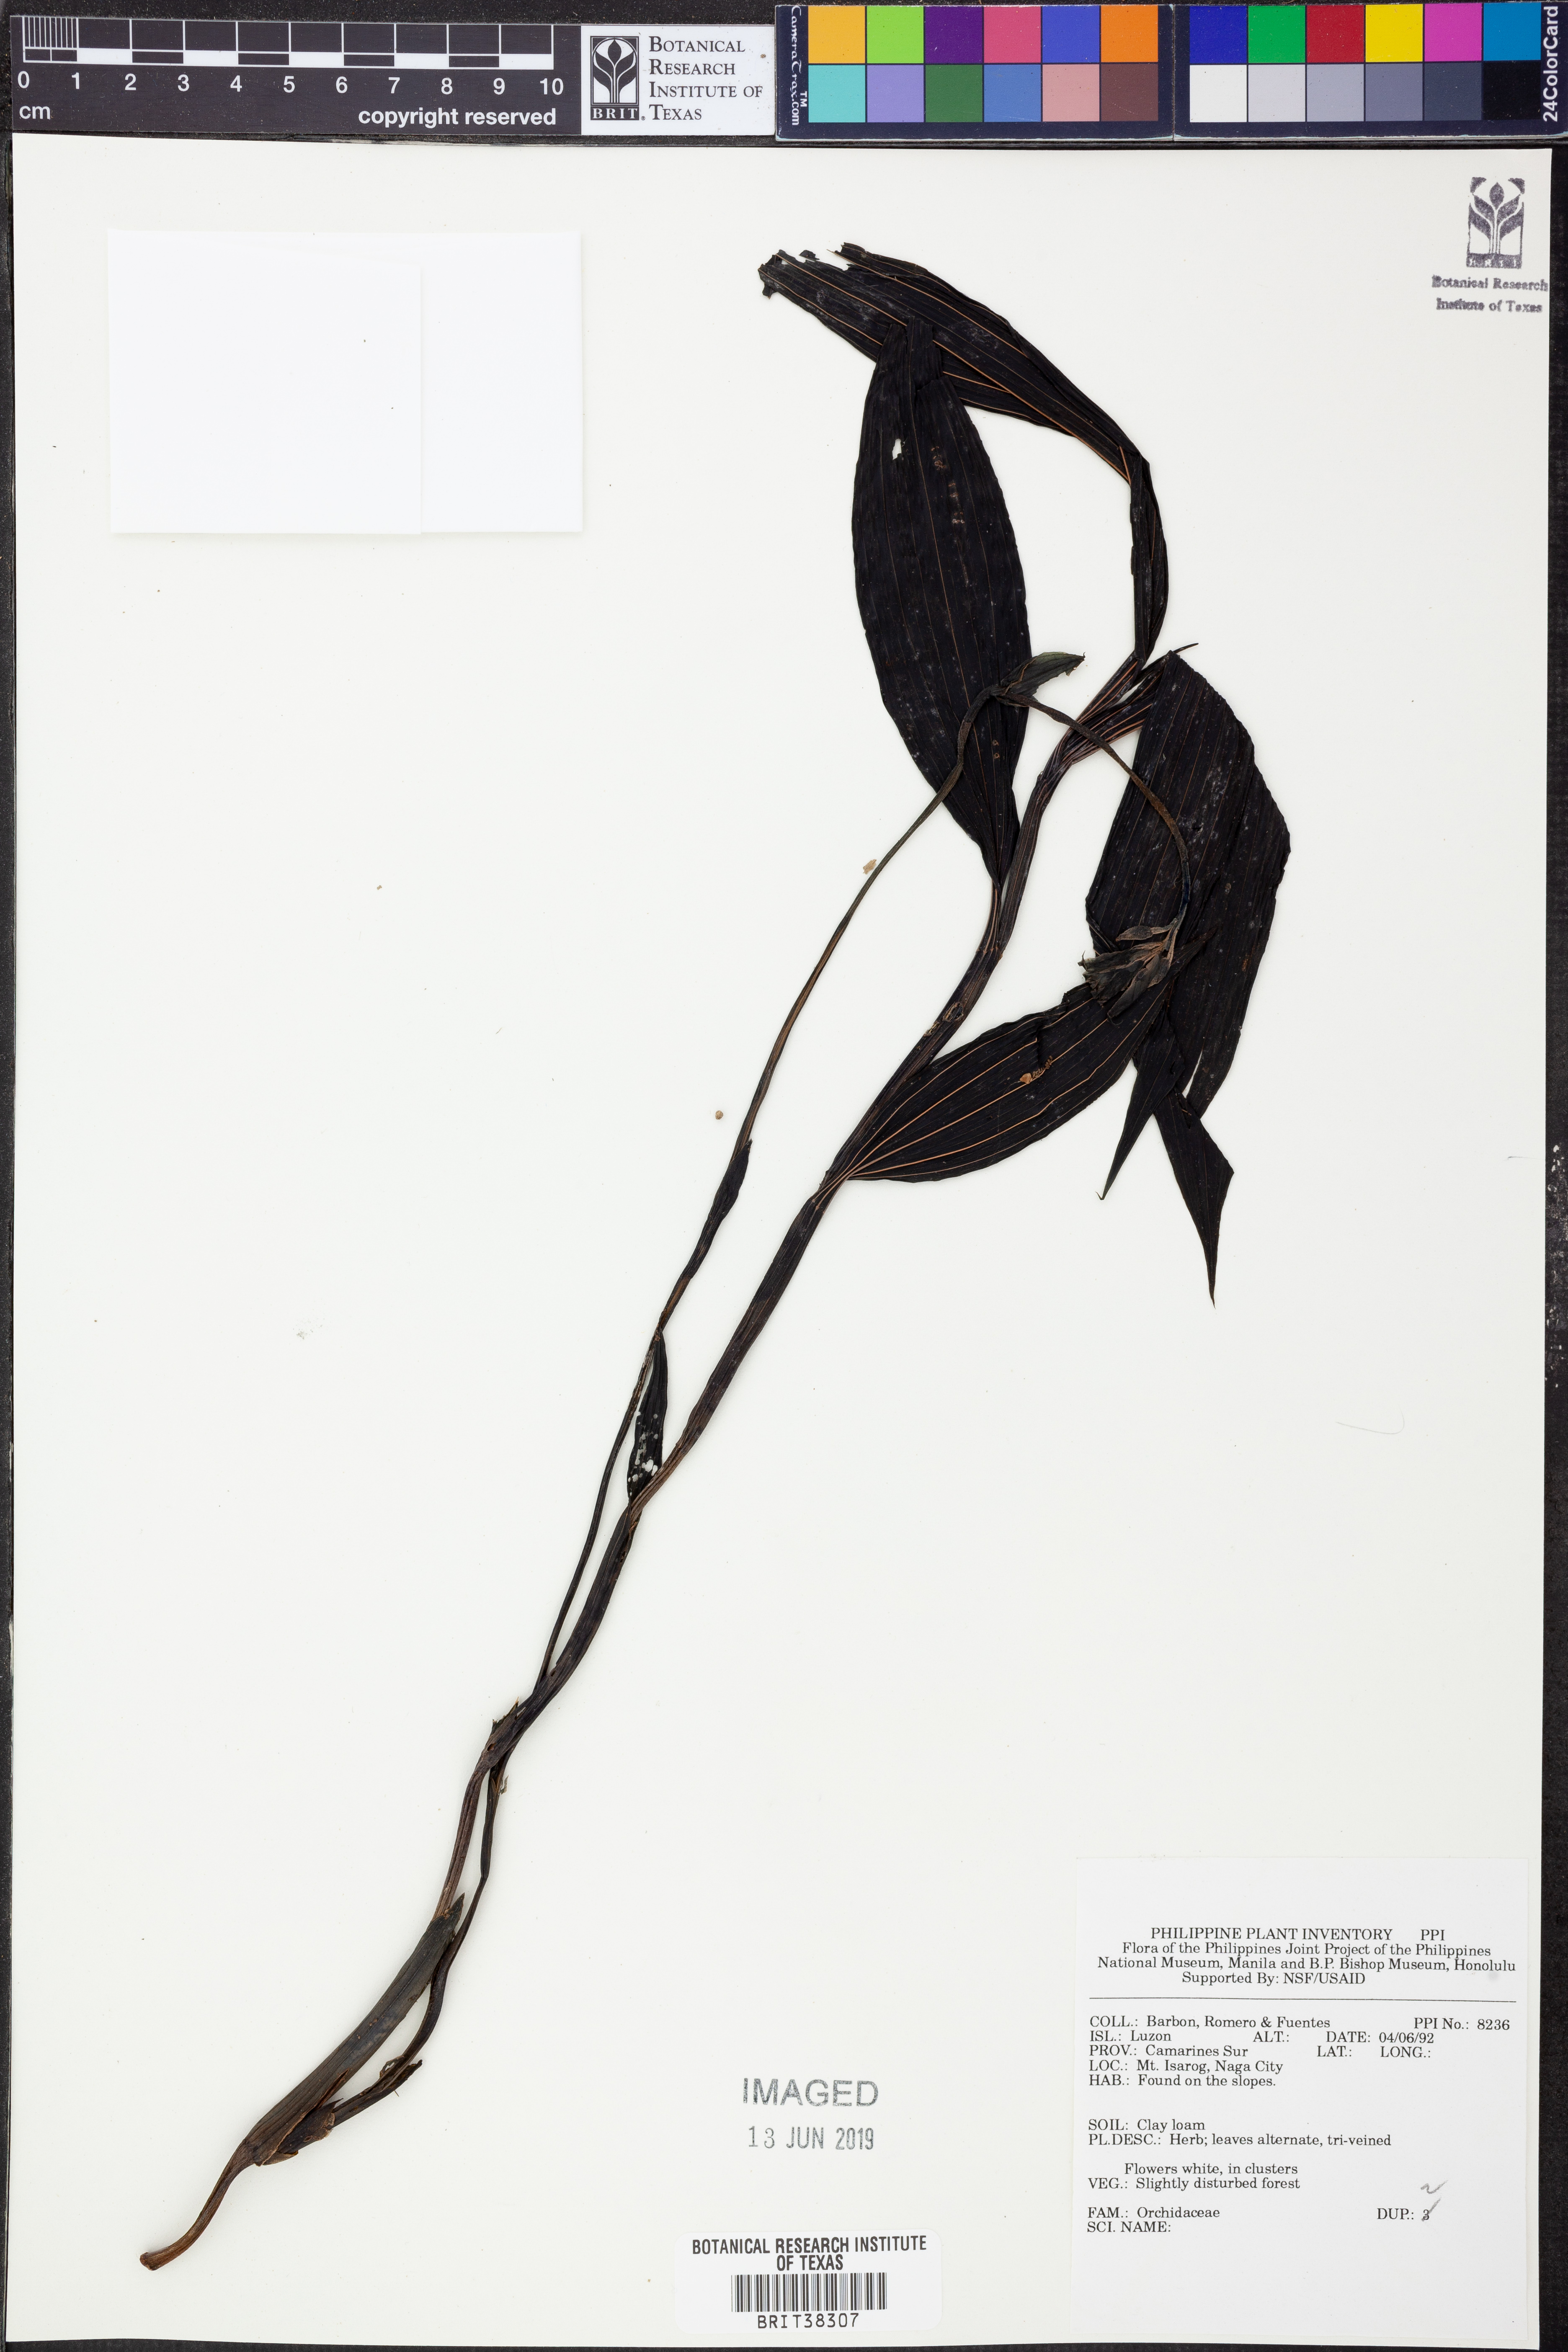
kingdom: Plantae
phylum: Tracheophyta
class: Liliopsida
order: Asparagales
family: Orchidaceae
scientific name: Orchidaceae
